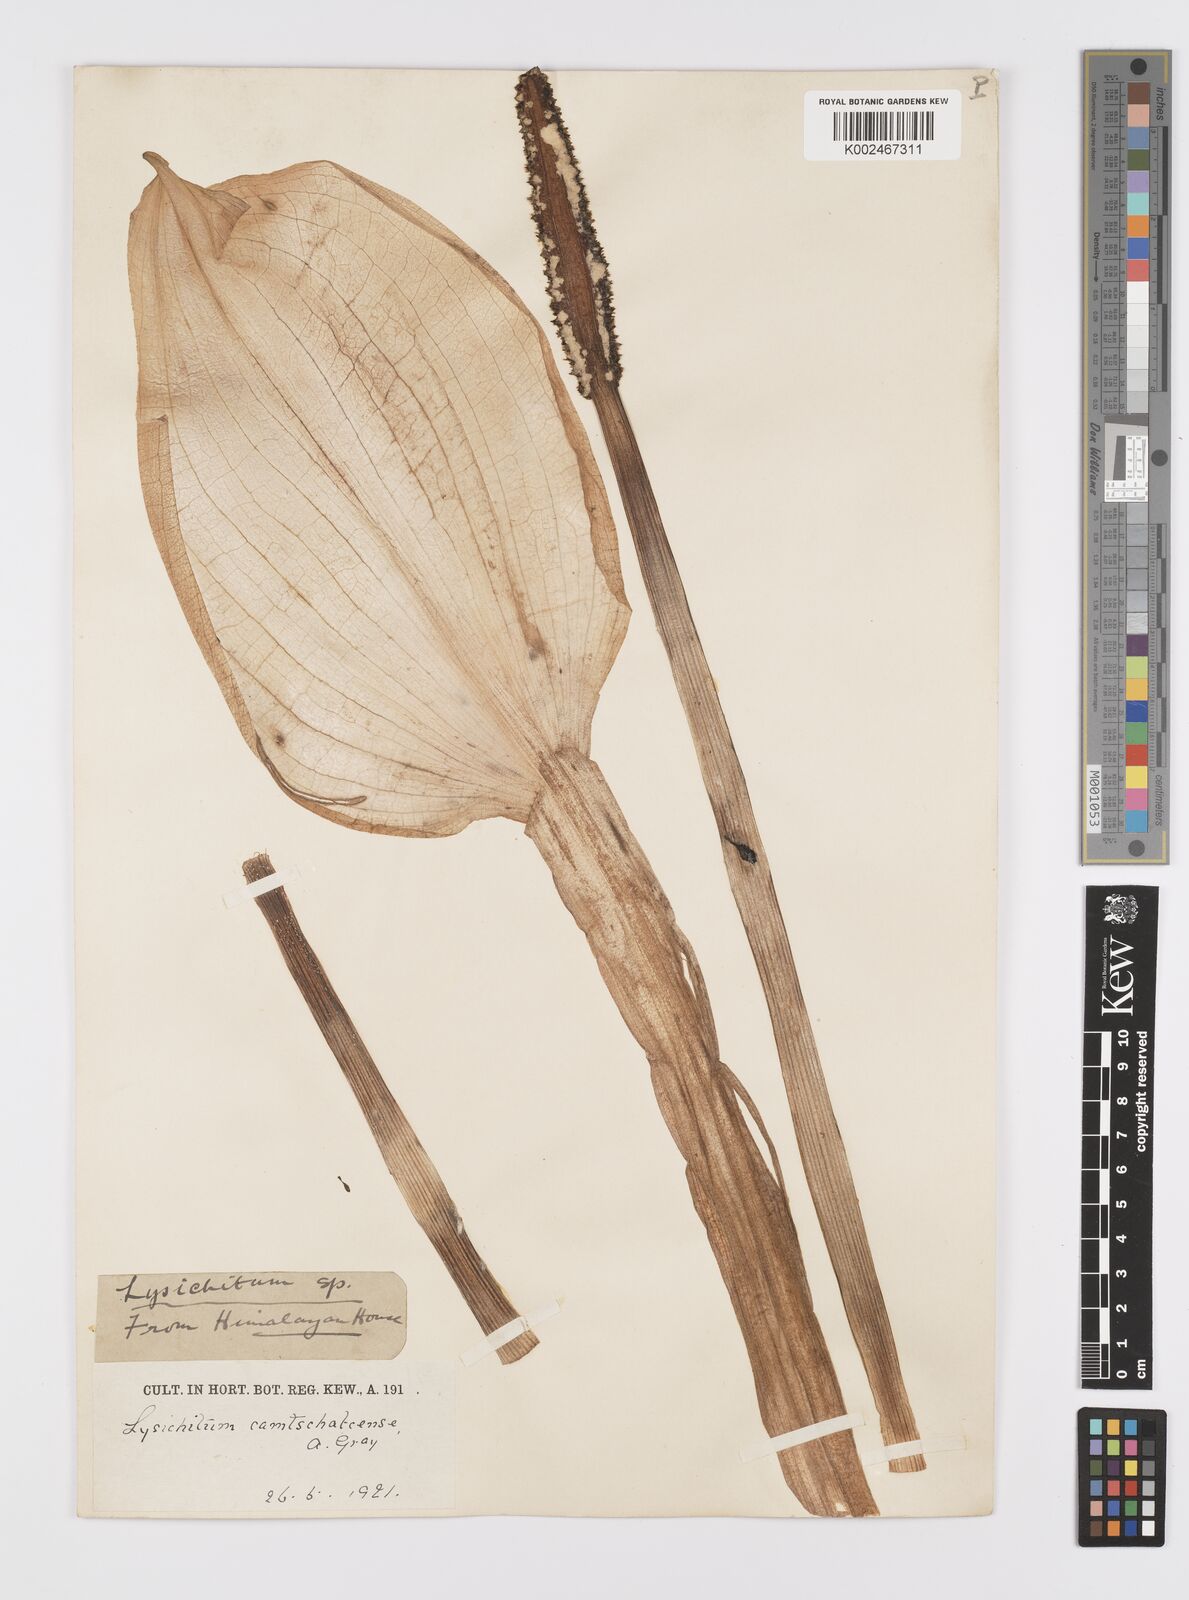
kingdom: Plantae
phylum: Tracheophyta
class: Liliopsida
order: Alismatales
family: Araceae
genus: Lysichiton
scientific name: Lysichiton camtschatcensis
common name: Asian skunk-cabbage
